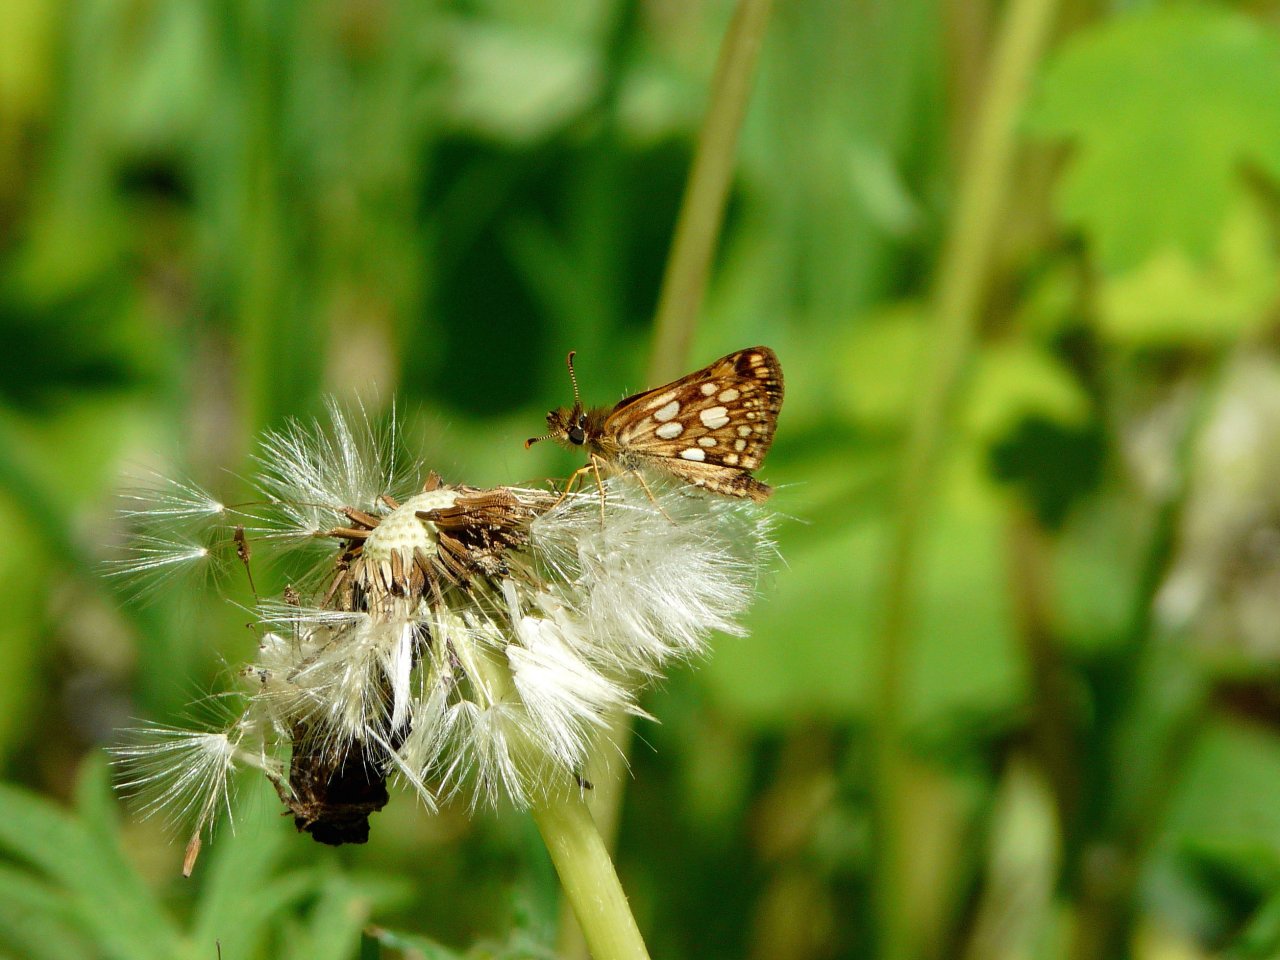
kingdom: Animalia
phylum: Arthropoda
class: Insecta
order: Lepidoptera
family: Hesperiidae
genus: Carterocephalus
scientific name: Carterocephalus palaemon
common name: Chequered Skipper
